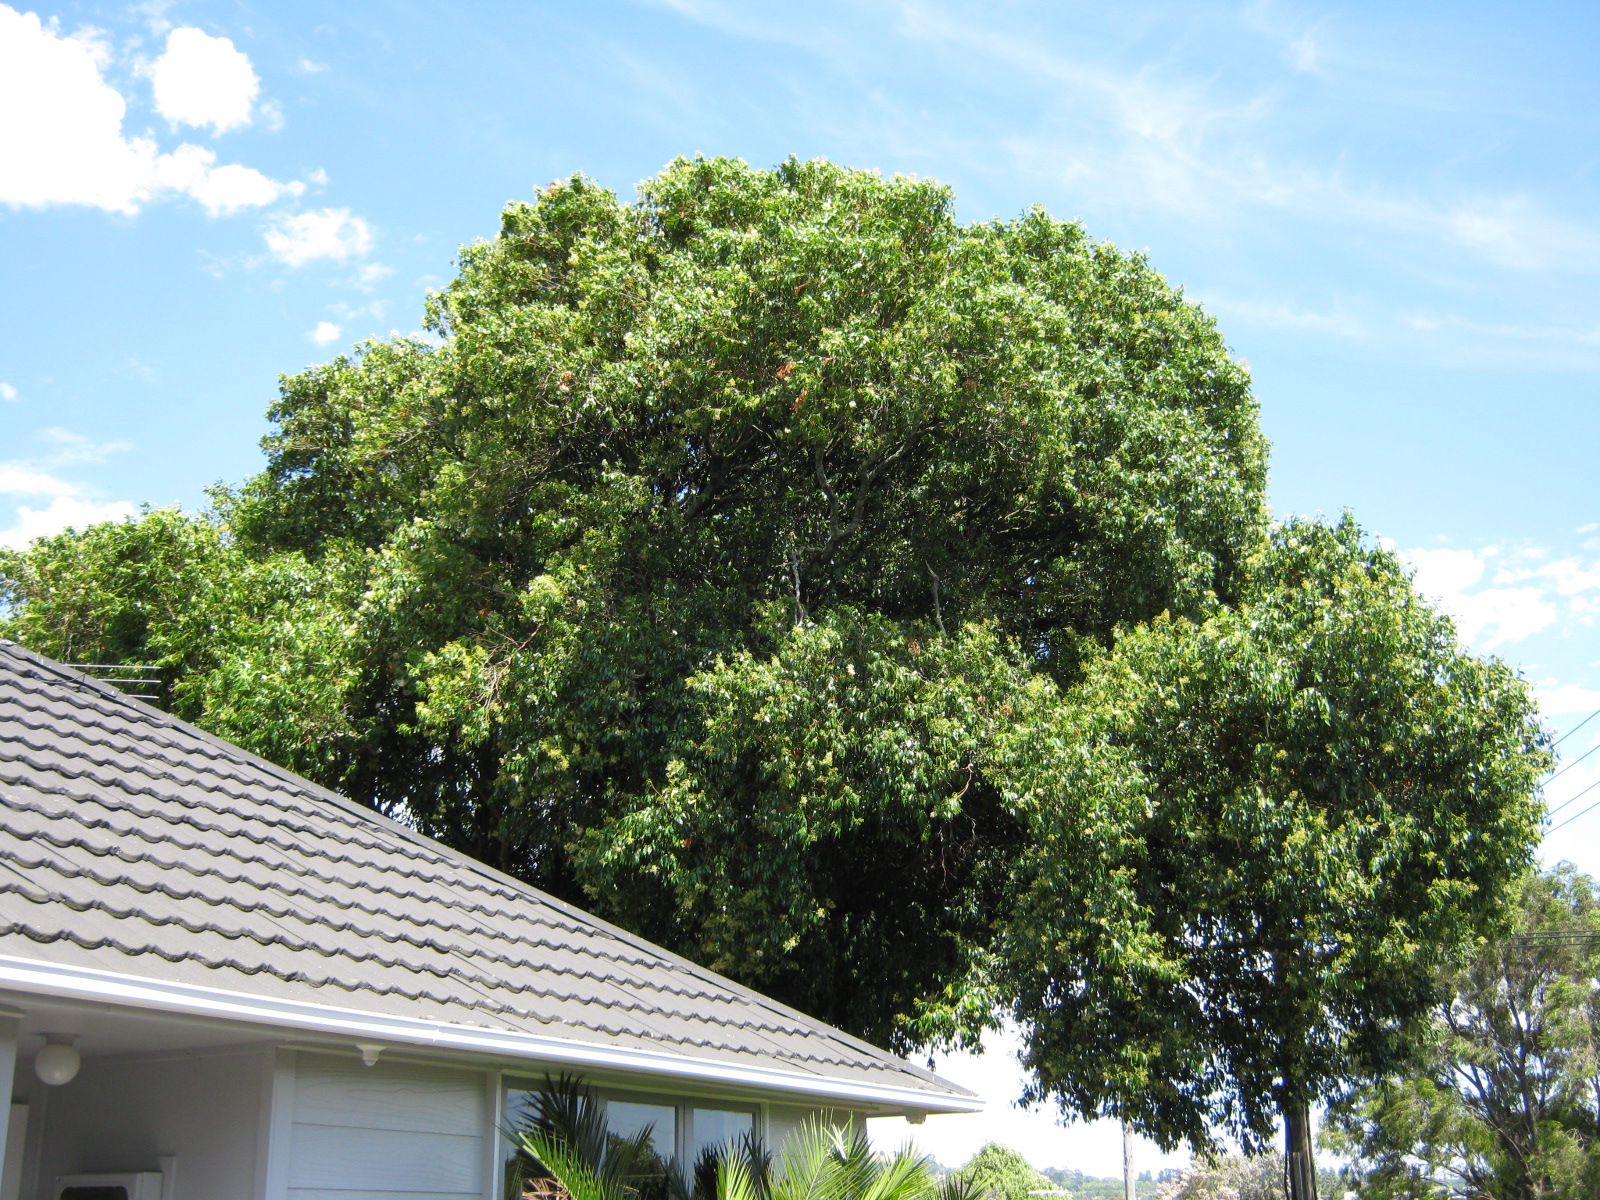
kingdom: Plantae
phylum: Tracheophyta
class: Magnoliopsida
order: Myrtales
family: Myrtaceae
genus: Syzygium
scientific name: Syzygium floribundum
